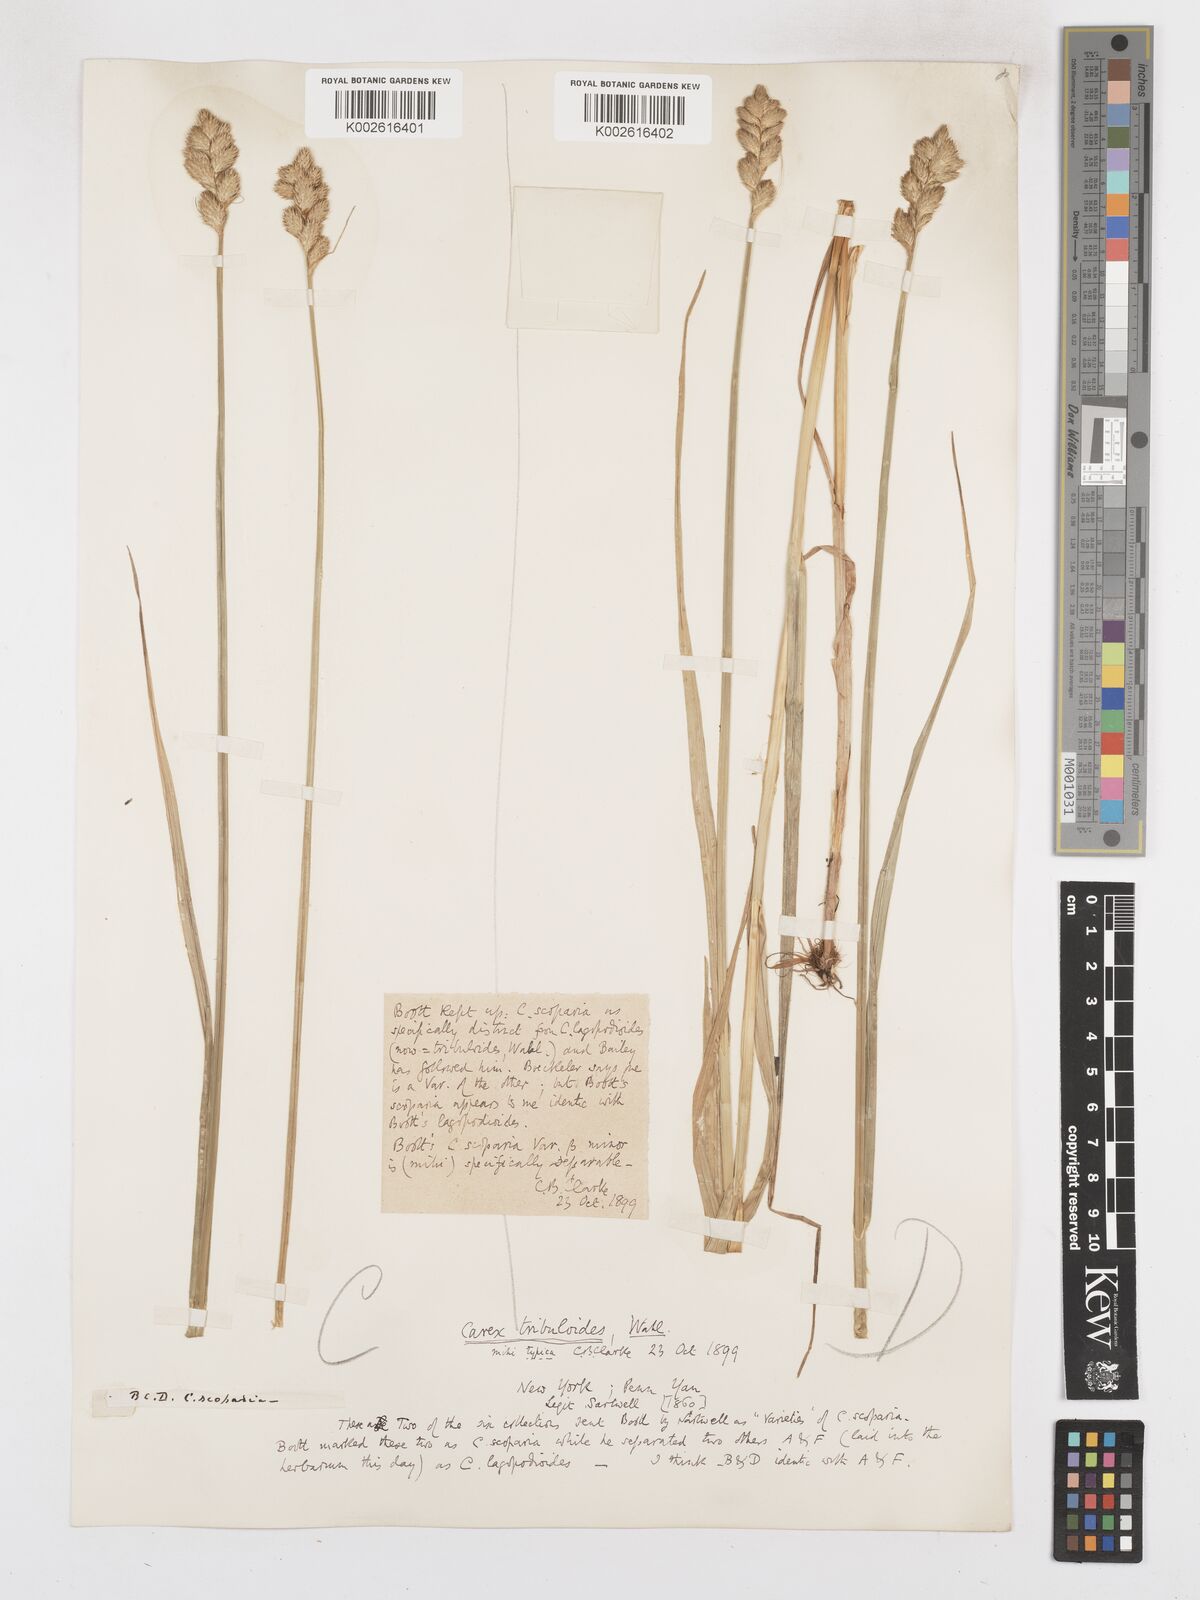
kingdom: Plantae
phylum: Tracheophyta
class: Liliopsida
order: Poales
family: Cyperaceae
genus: Carex
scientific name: Carex tribuloides
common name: Blunt broom sedge
